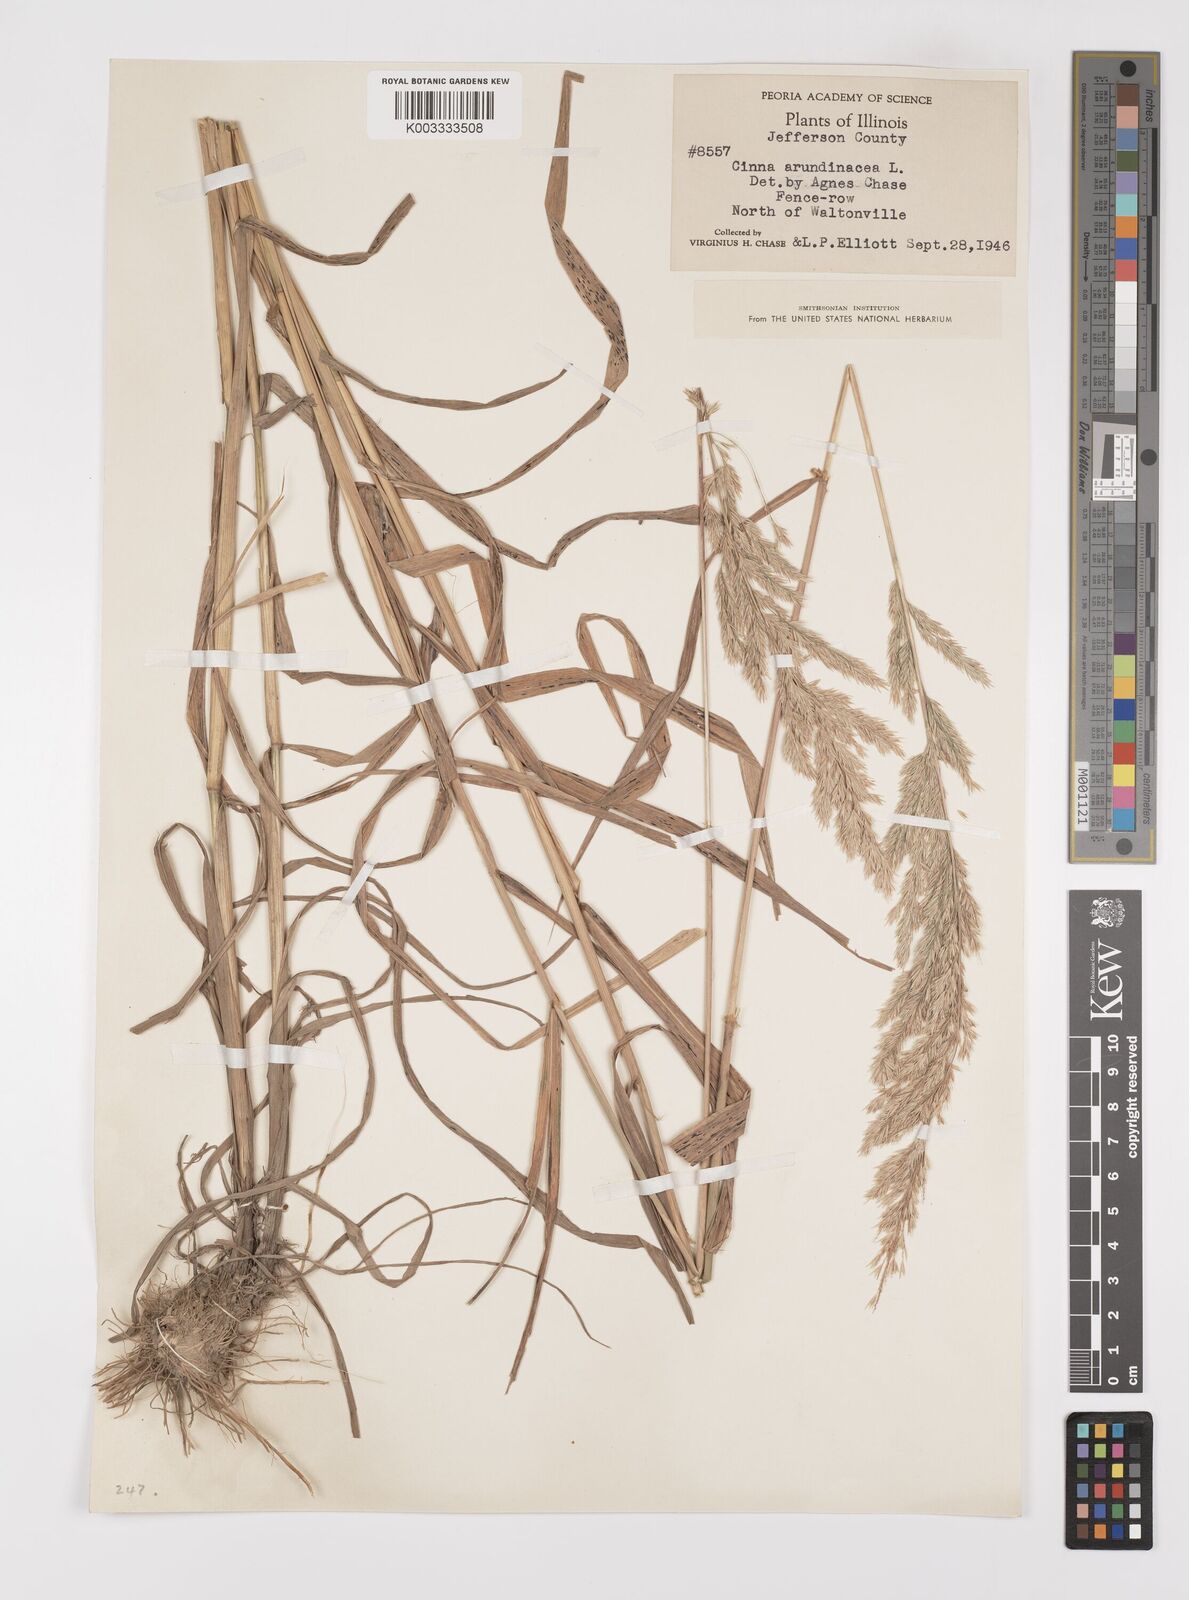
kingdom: Plantae
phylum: Tracheophyta
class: Liliopsida
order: Poales
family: Poaceae
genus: Cinna
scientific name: Cinna
